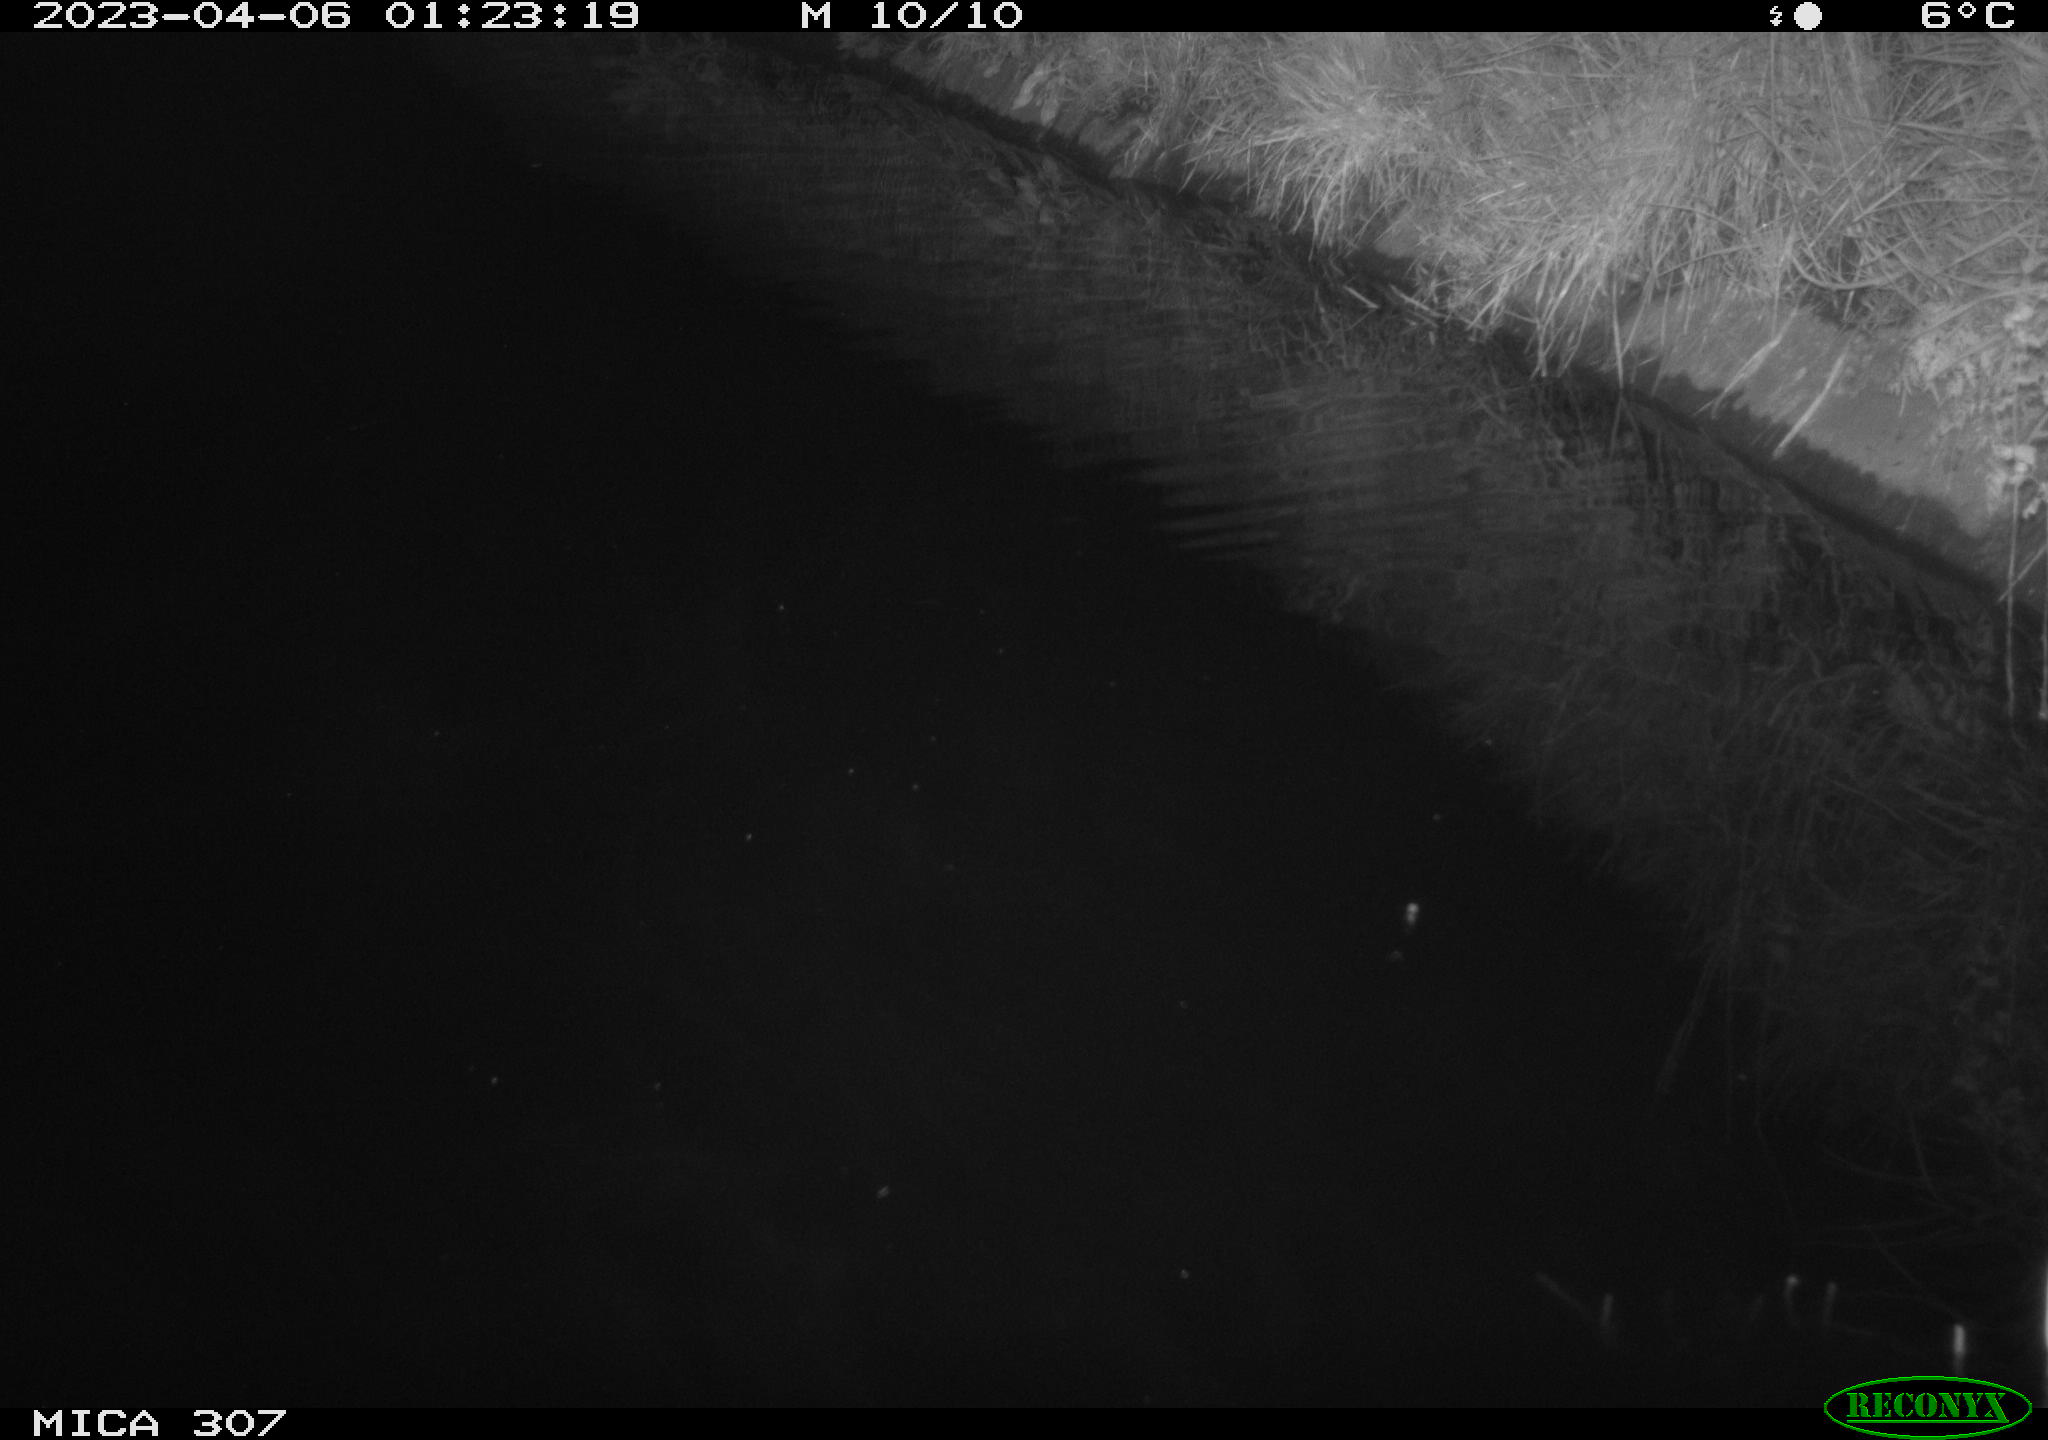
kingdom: Animalia
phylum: Chordata
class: Aves
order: Anseriformes
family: Anatidae
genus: Anas
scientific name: Anas
